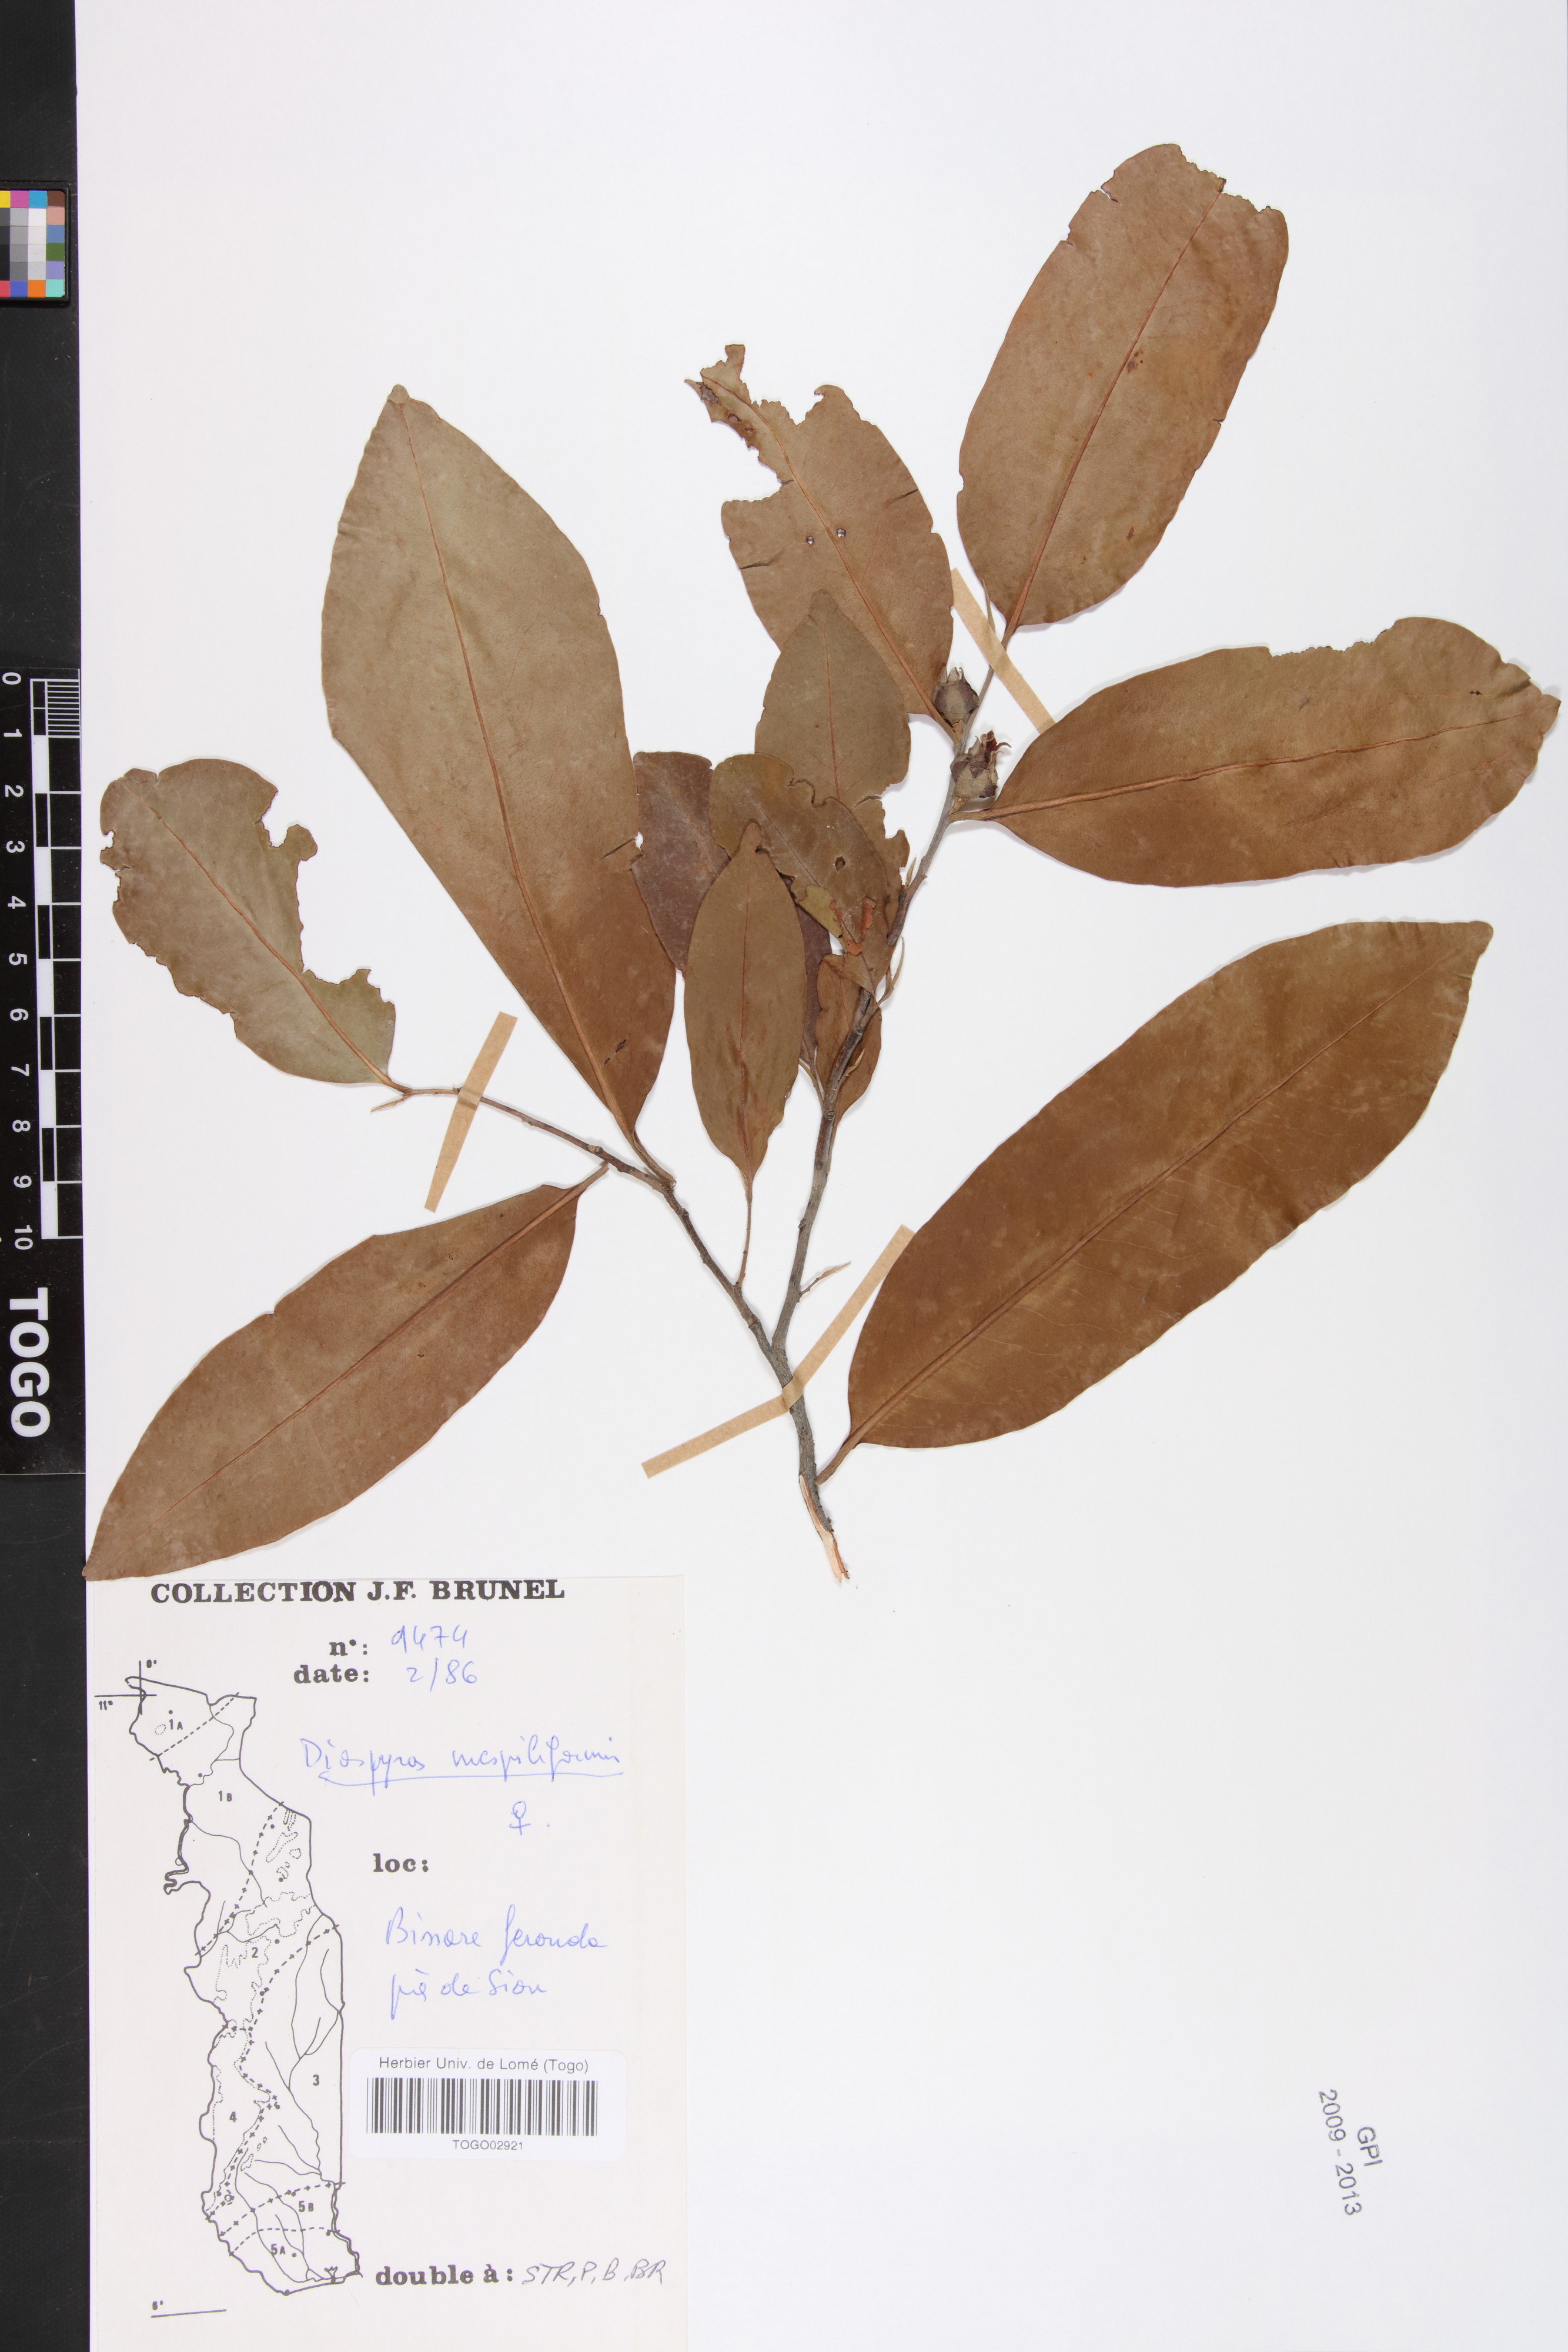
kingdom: Plantae
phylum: Tracheophyta
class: Magnoliopsida
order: Ericales
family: Ebenaceae
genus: Diospyros
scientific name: Diospyros mespiliformis
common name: Ebony diospyros
